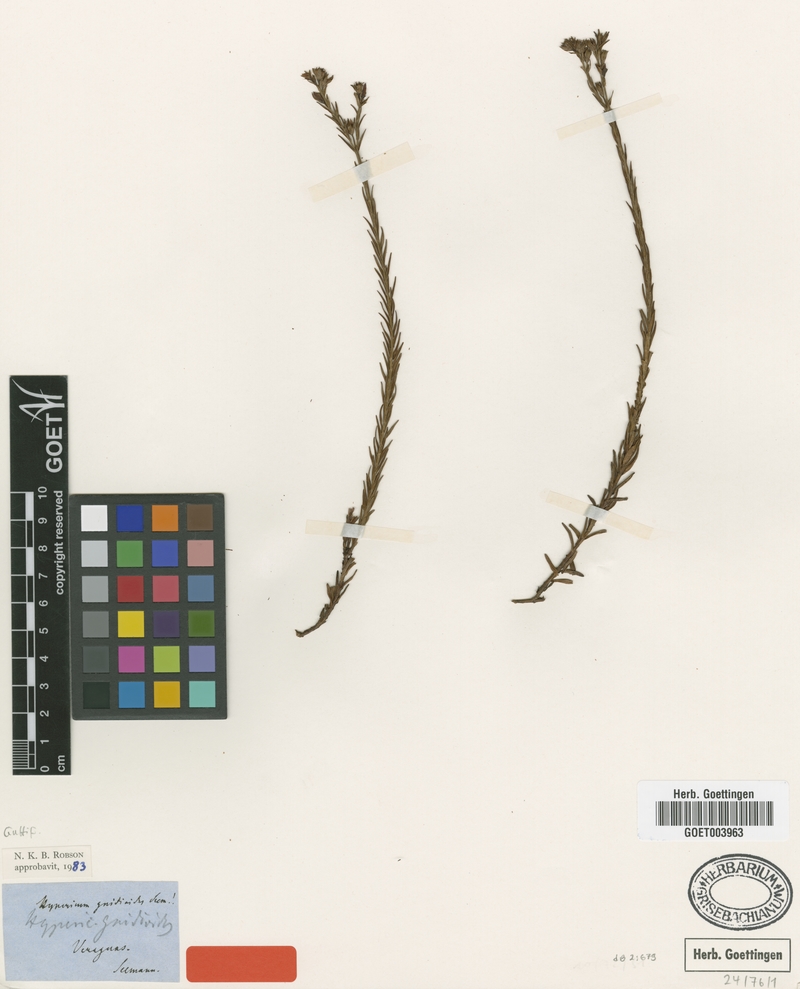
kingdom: Plantae
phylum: Tracheophyta
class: Magnoliopsida
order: Malpighiales
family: Hypericaceae
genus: Hypericum
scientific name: Hypericum gnidioides
